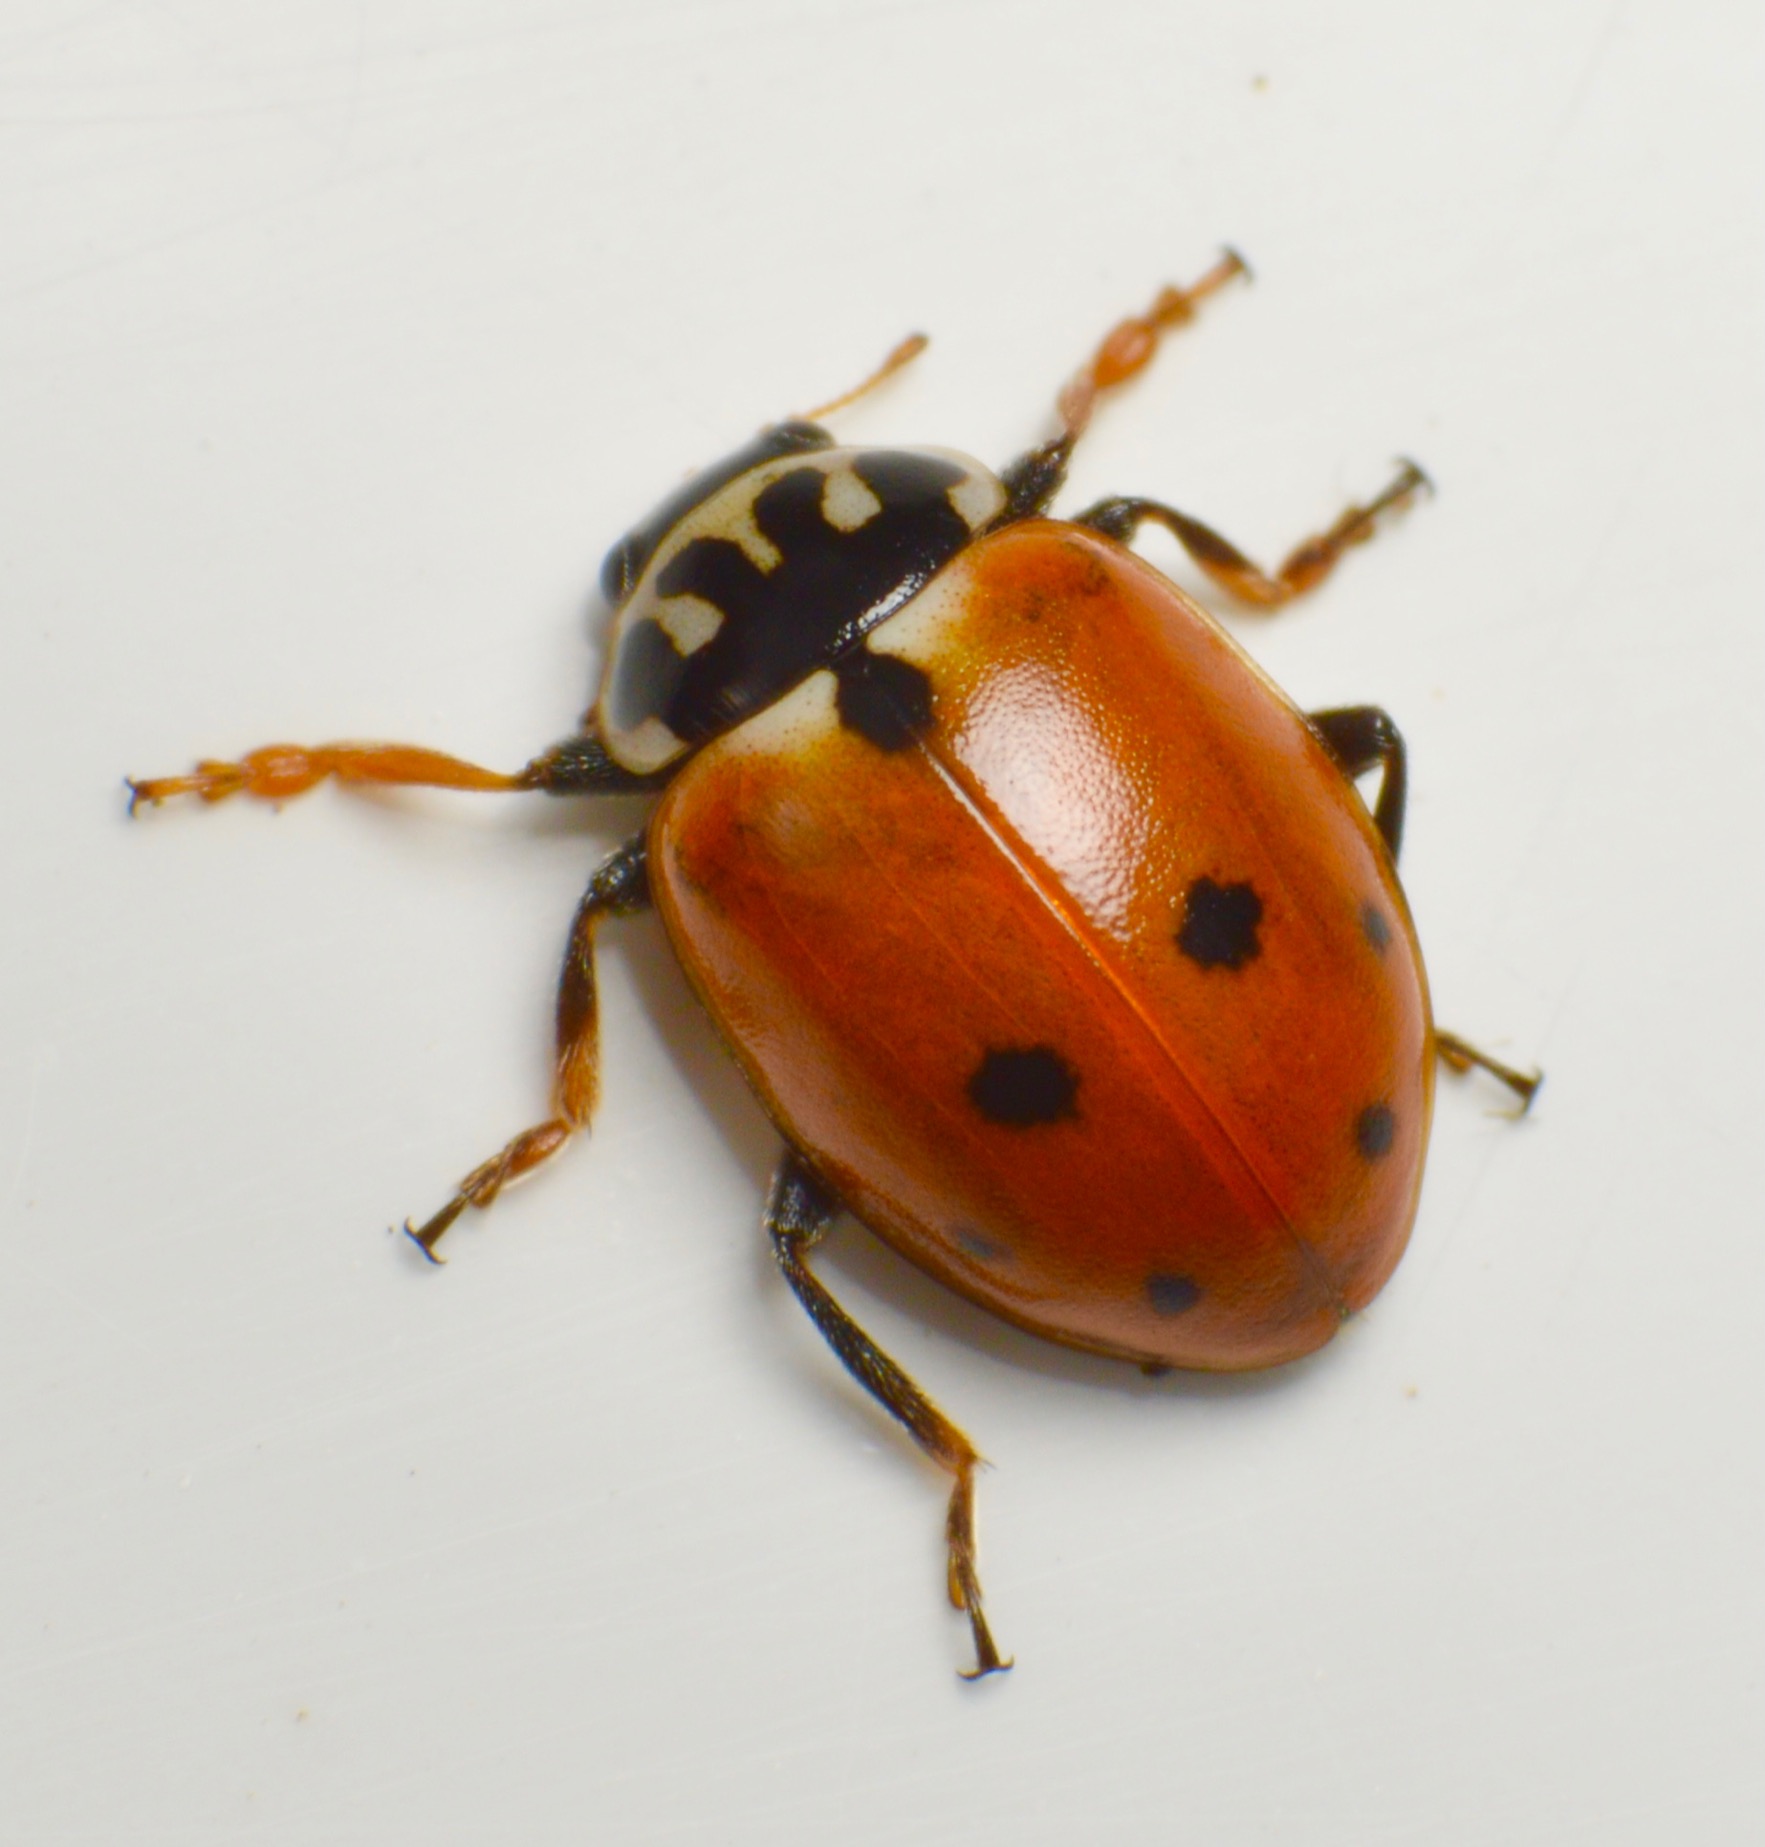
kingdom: Animalia
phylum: Arthropoda
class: Insecta
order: Coleoptera
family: Coccinellidae
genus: Hippodamia
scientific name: Hippodamia variegata
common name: Adonis' mariehøne
